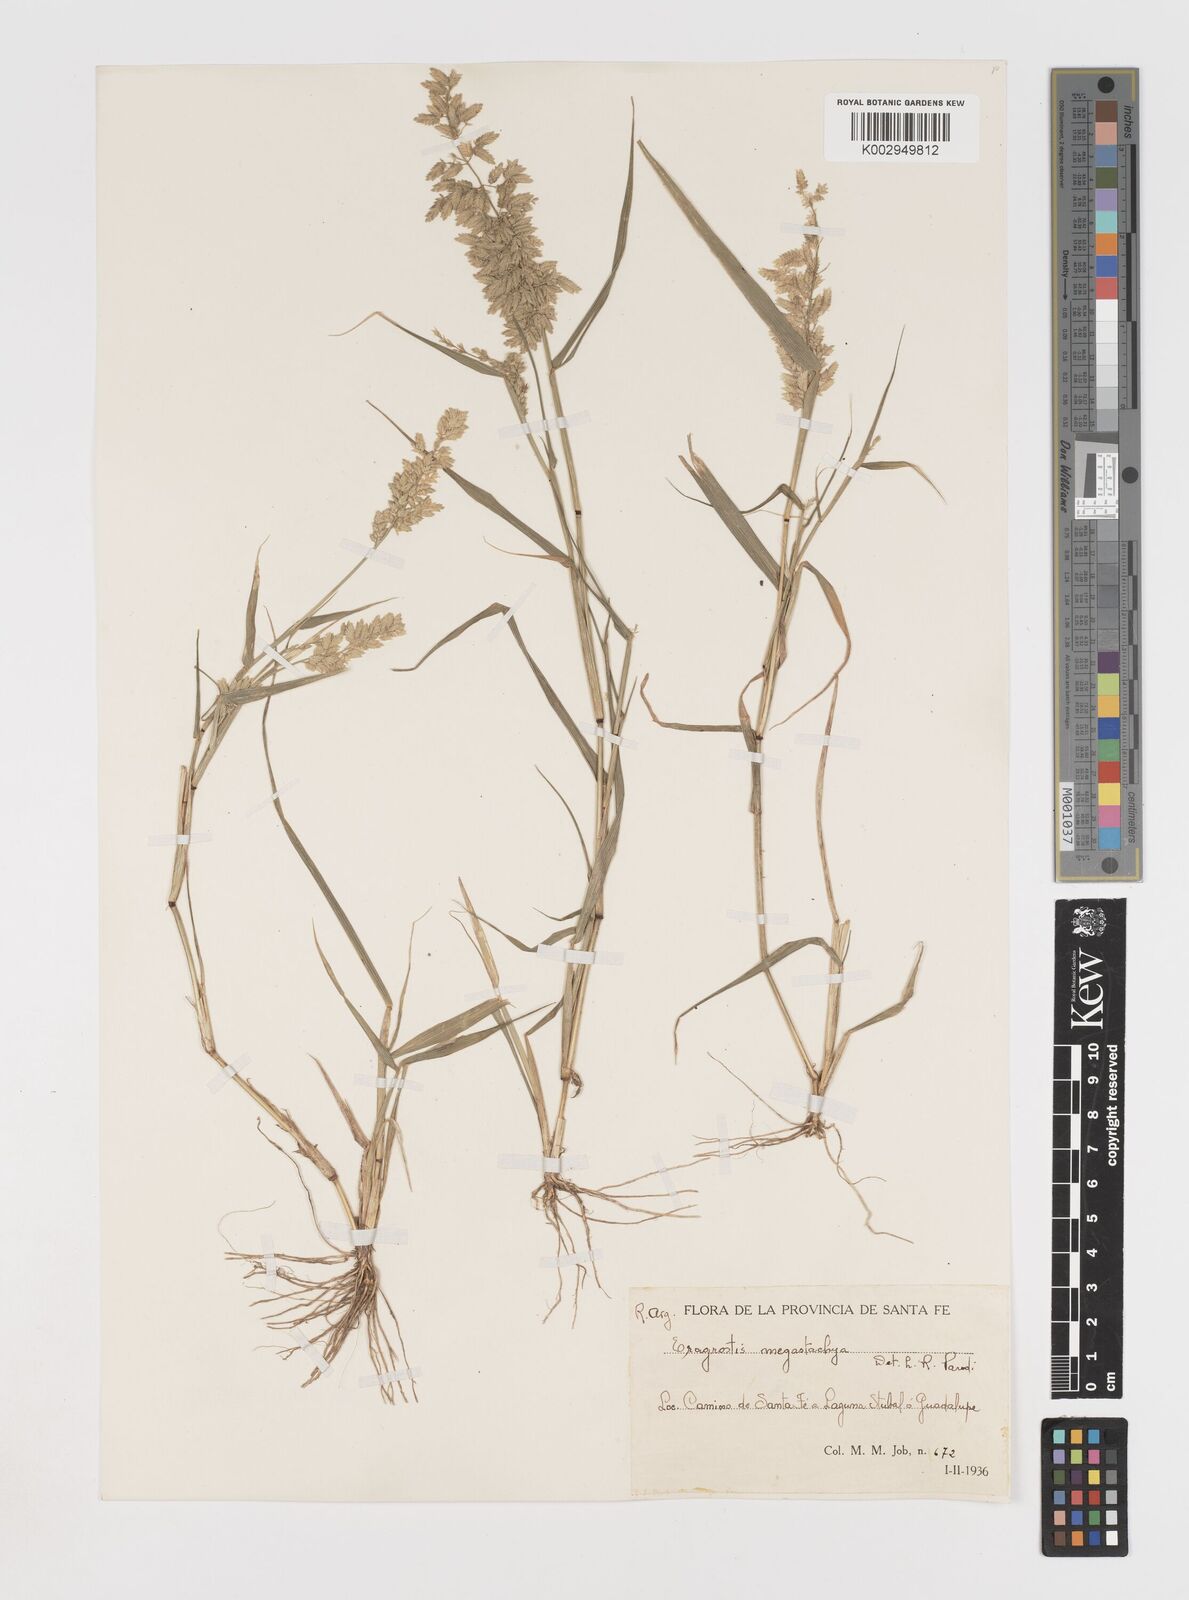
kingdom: Plantae
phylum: Tracheophyta
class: Liliopsida
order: Poales
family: Poaceae
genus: Eragrostis
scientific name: Eragrostis cilianensis
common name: Stinkgrass
